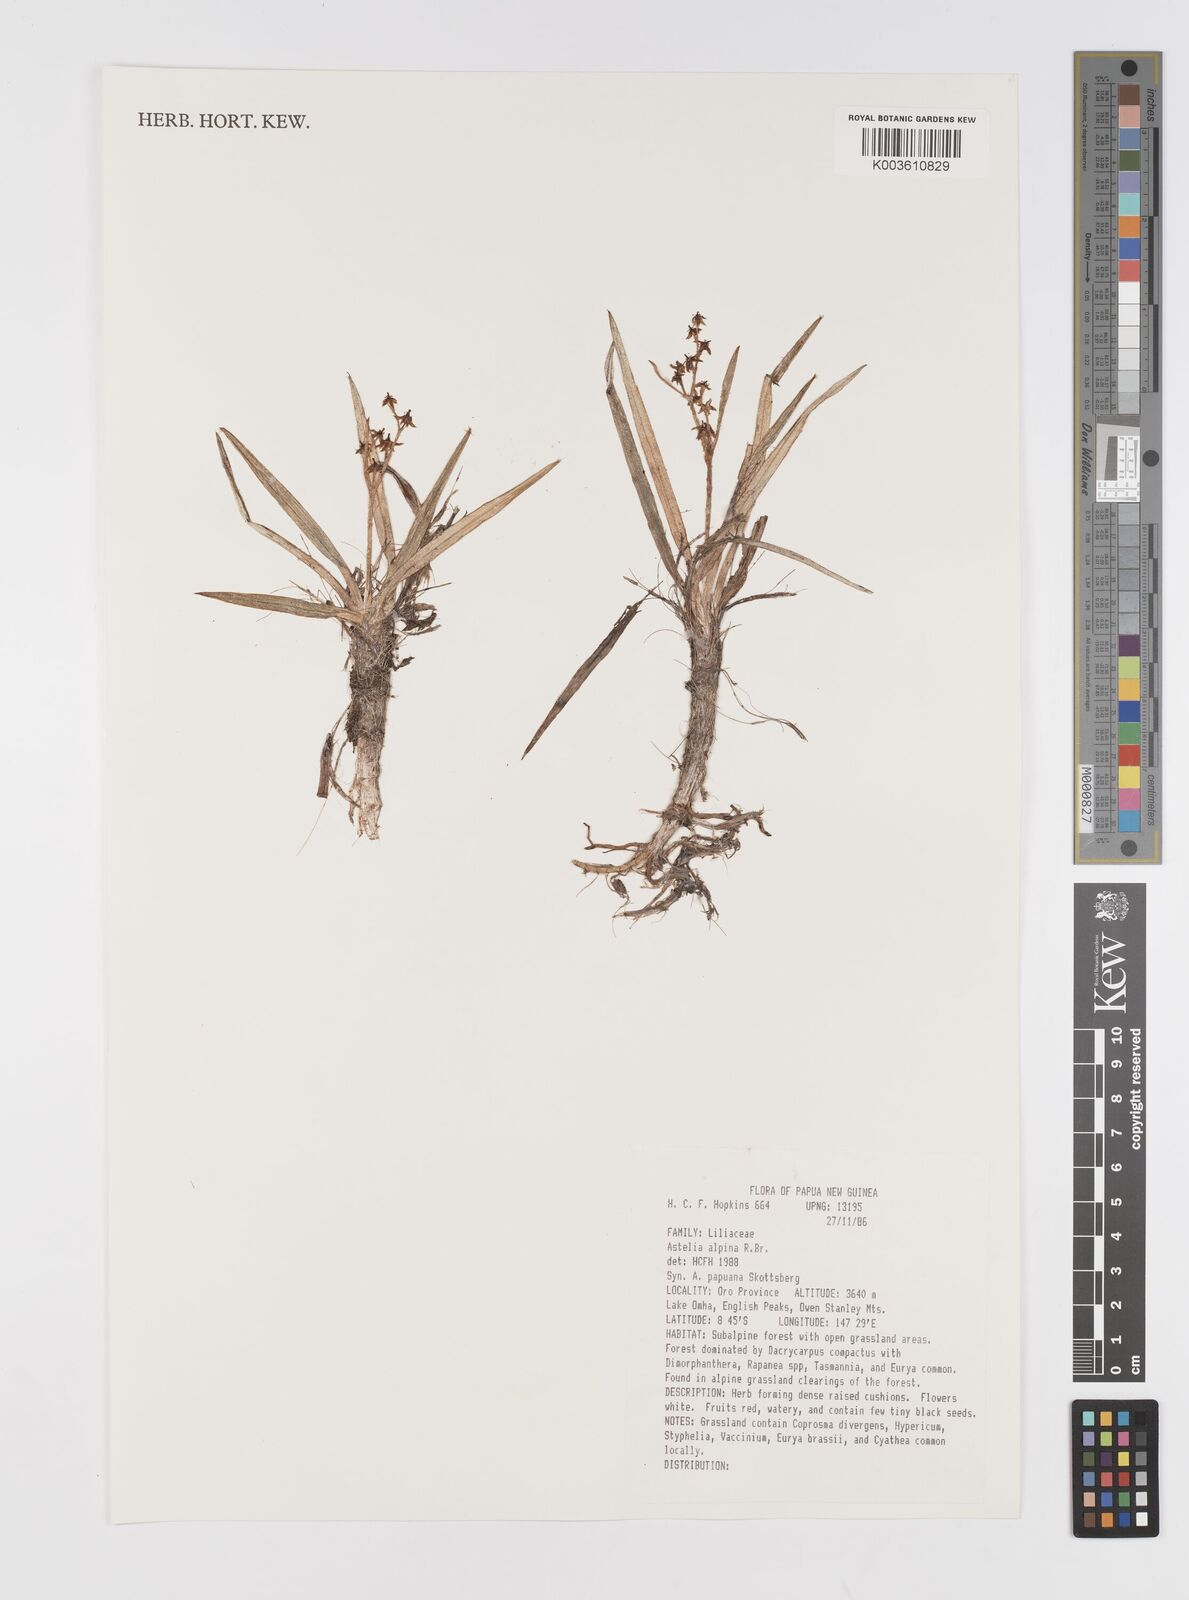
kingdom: Plantae
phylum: Tracheophyta
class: Liliopsida
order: Asparagales
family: Asteliaceae
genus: Astelia
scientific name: Astelia papuana
